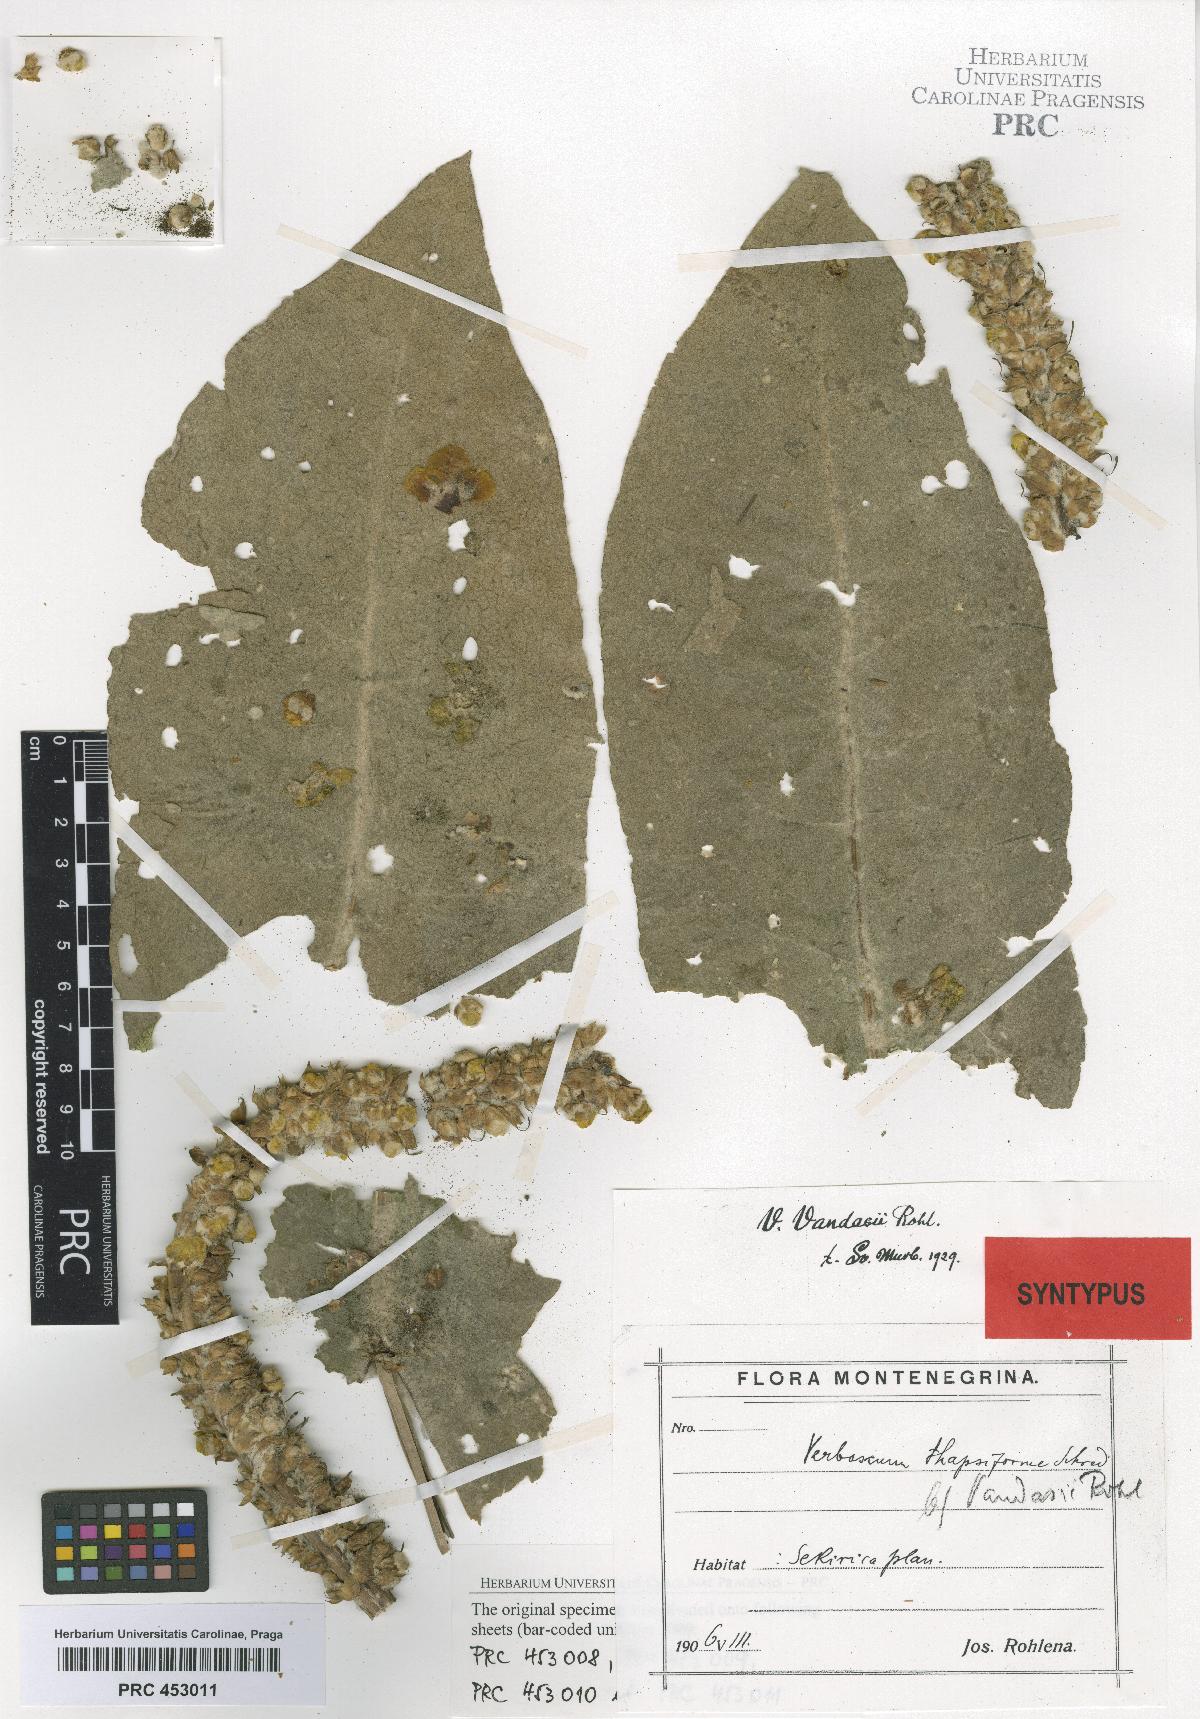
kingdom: Plantae
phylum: Tracheophyta
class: Magnoliopsida
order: Lamiales
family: Scrophulariaceae
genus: Verbascum
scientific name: Verbascum vandasii
